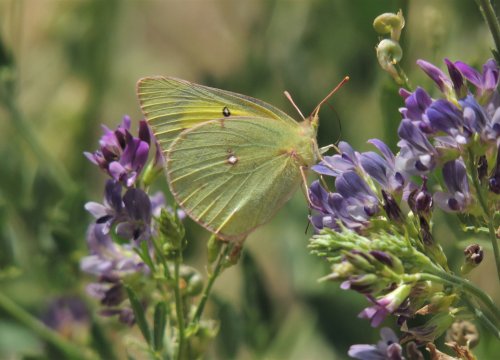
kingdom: Animalia
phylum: Arthropoda
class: Insecta
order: Lepidoptera
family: Pieridae
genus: Colias
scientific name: Colias eurytheme
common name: Orange Sulphur
